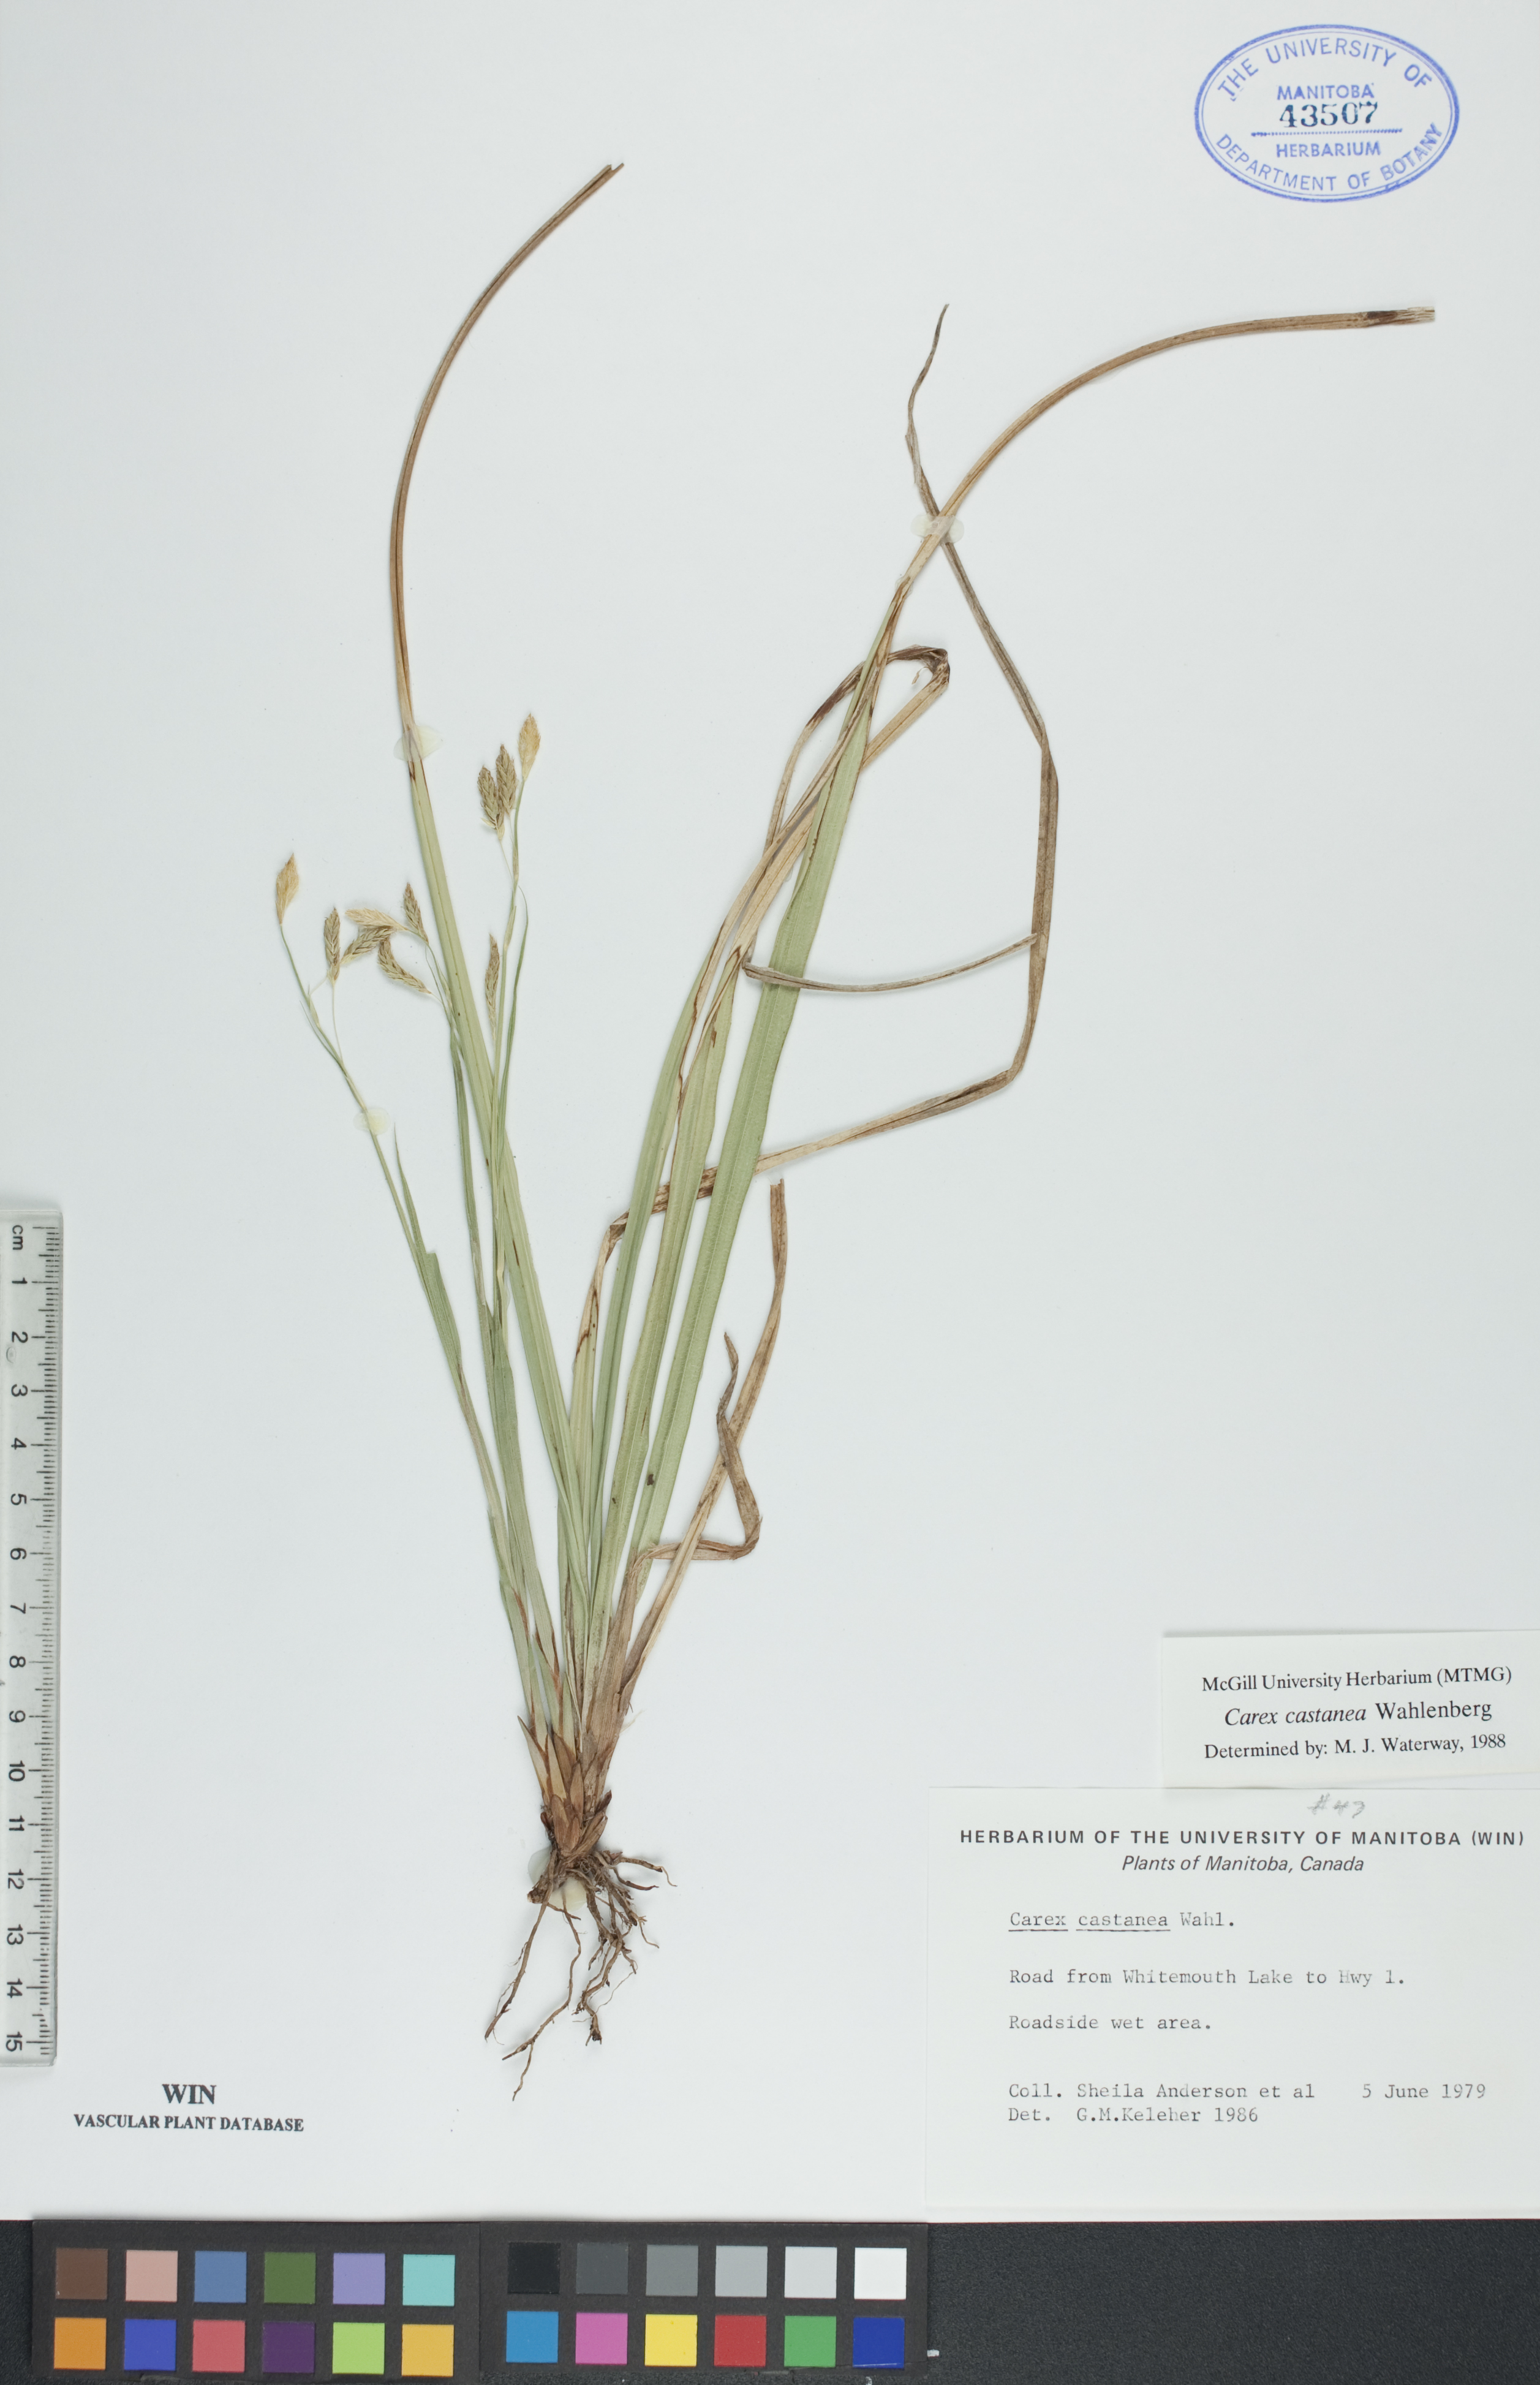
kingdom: Plantae
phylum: Tracheophyta
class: Liliopsida
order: Poales
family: Cyperaceae
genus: Carex
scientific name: Carex castanea
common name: Chestnut sedge
